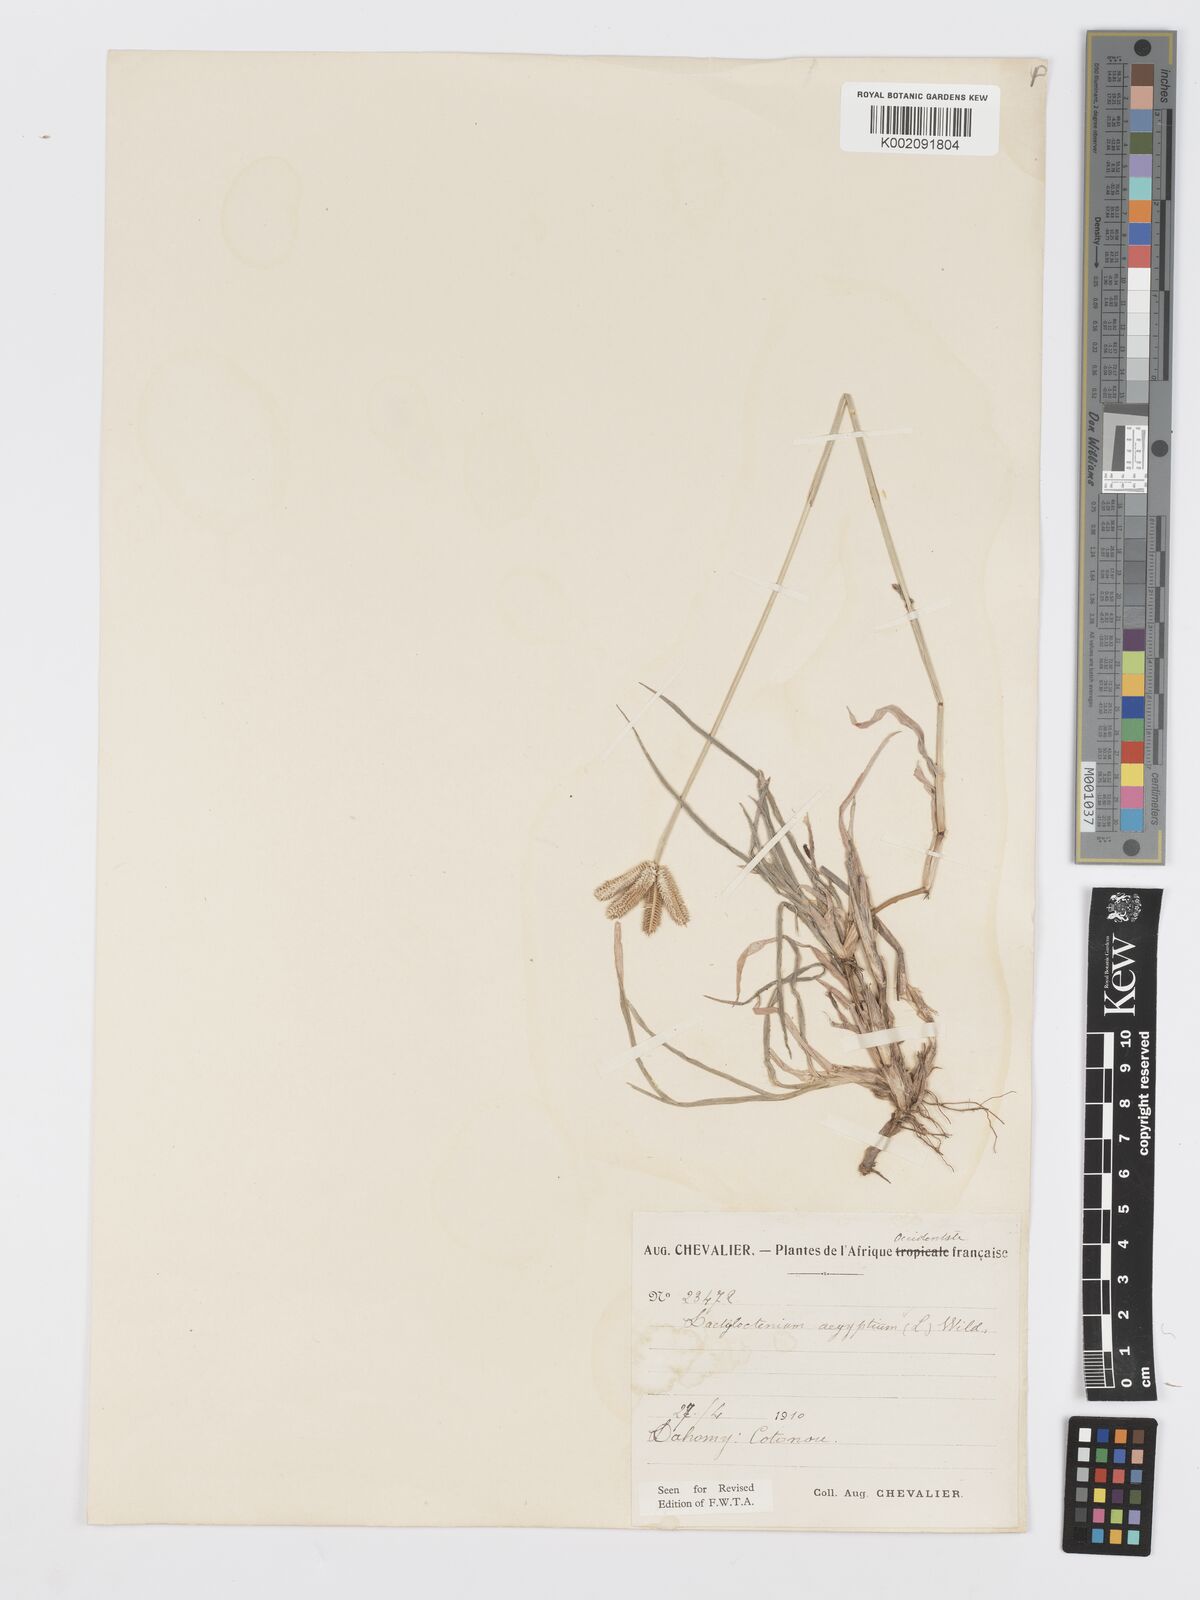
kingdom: Plantae
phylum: Tracheophyta
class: Liliopsida
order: Poales
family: Poaceae
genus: Dactyloctenium
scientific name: Dactyloctenium aegyptium
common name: Egyptian grass
